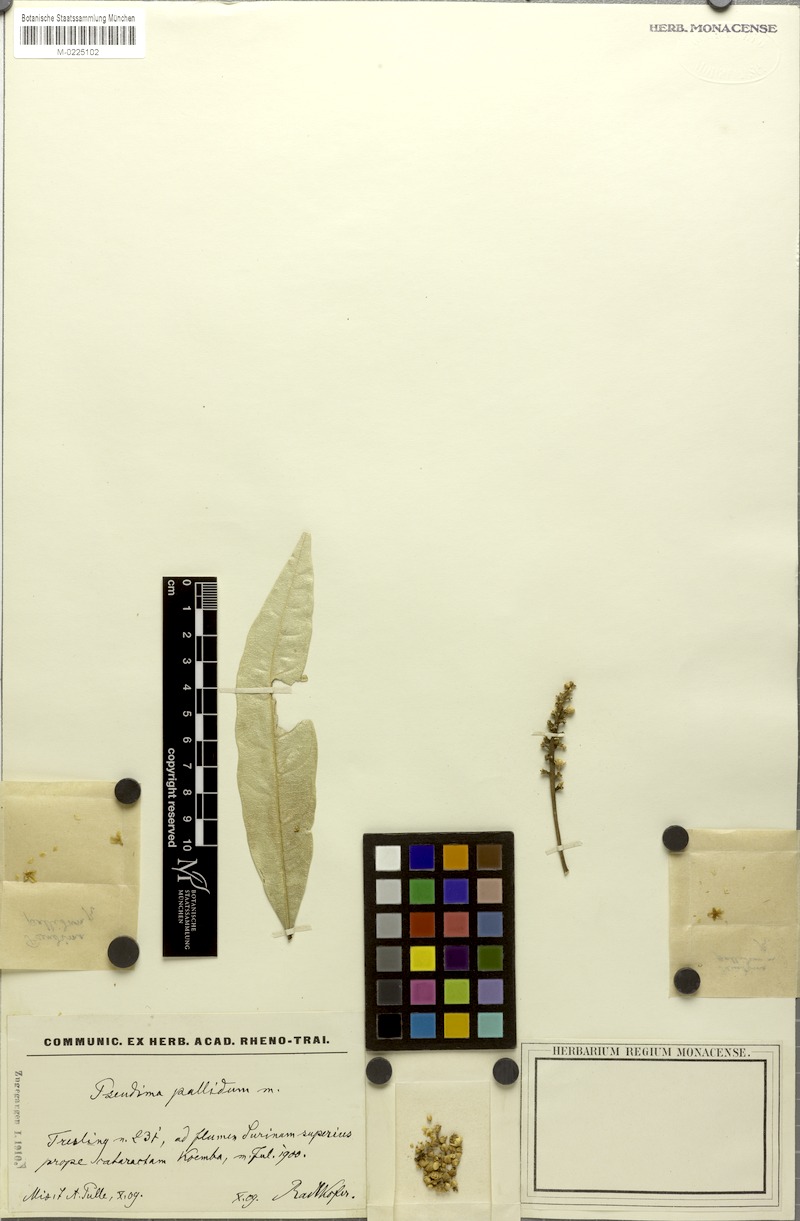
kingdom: Plantae
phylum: Tracheophyta
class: Magnoliopsida
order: Sapindales
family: Sapindaceae
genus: Pseudima
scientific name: Pseudima pallidum
